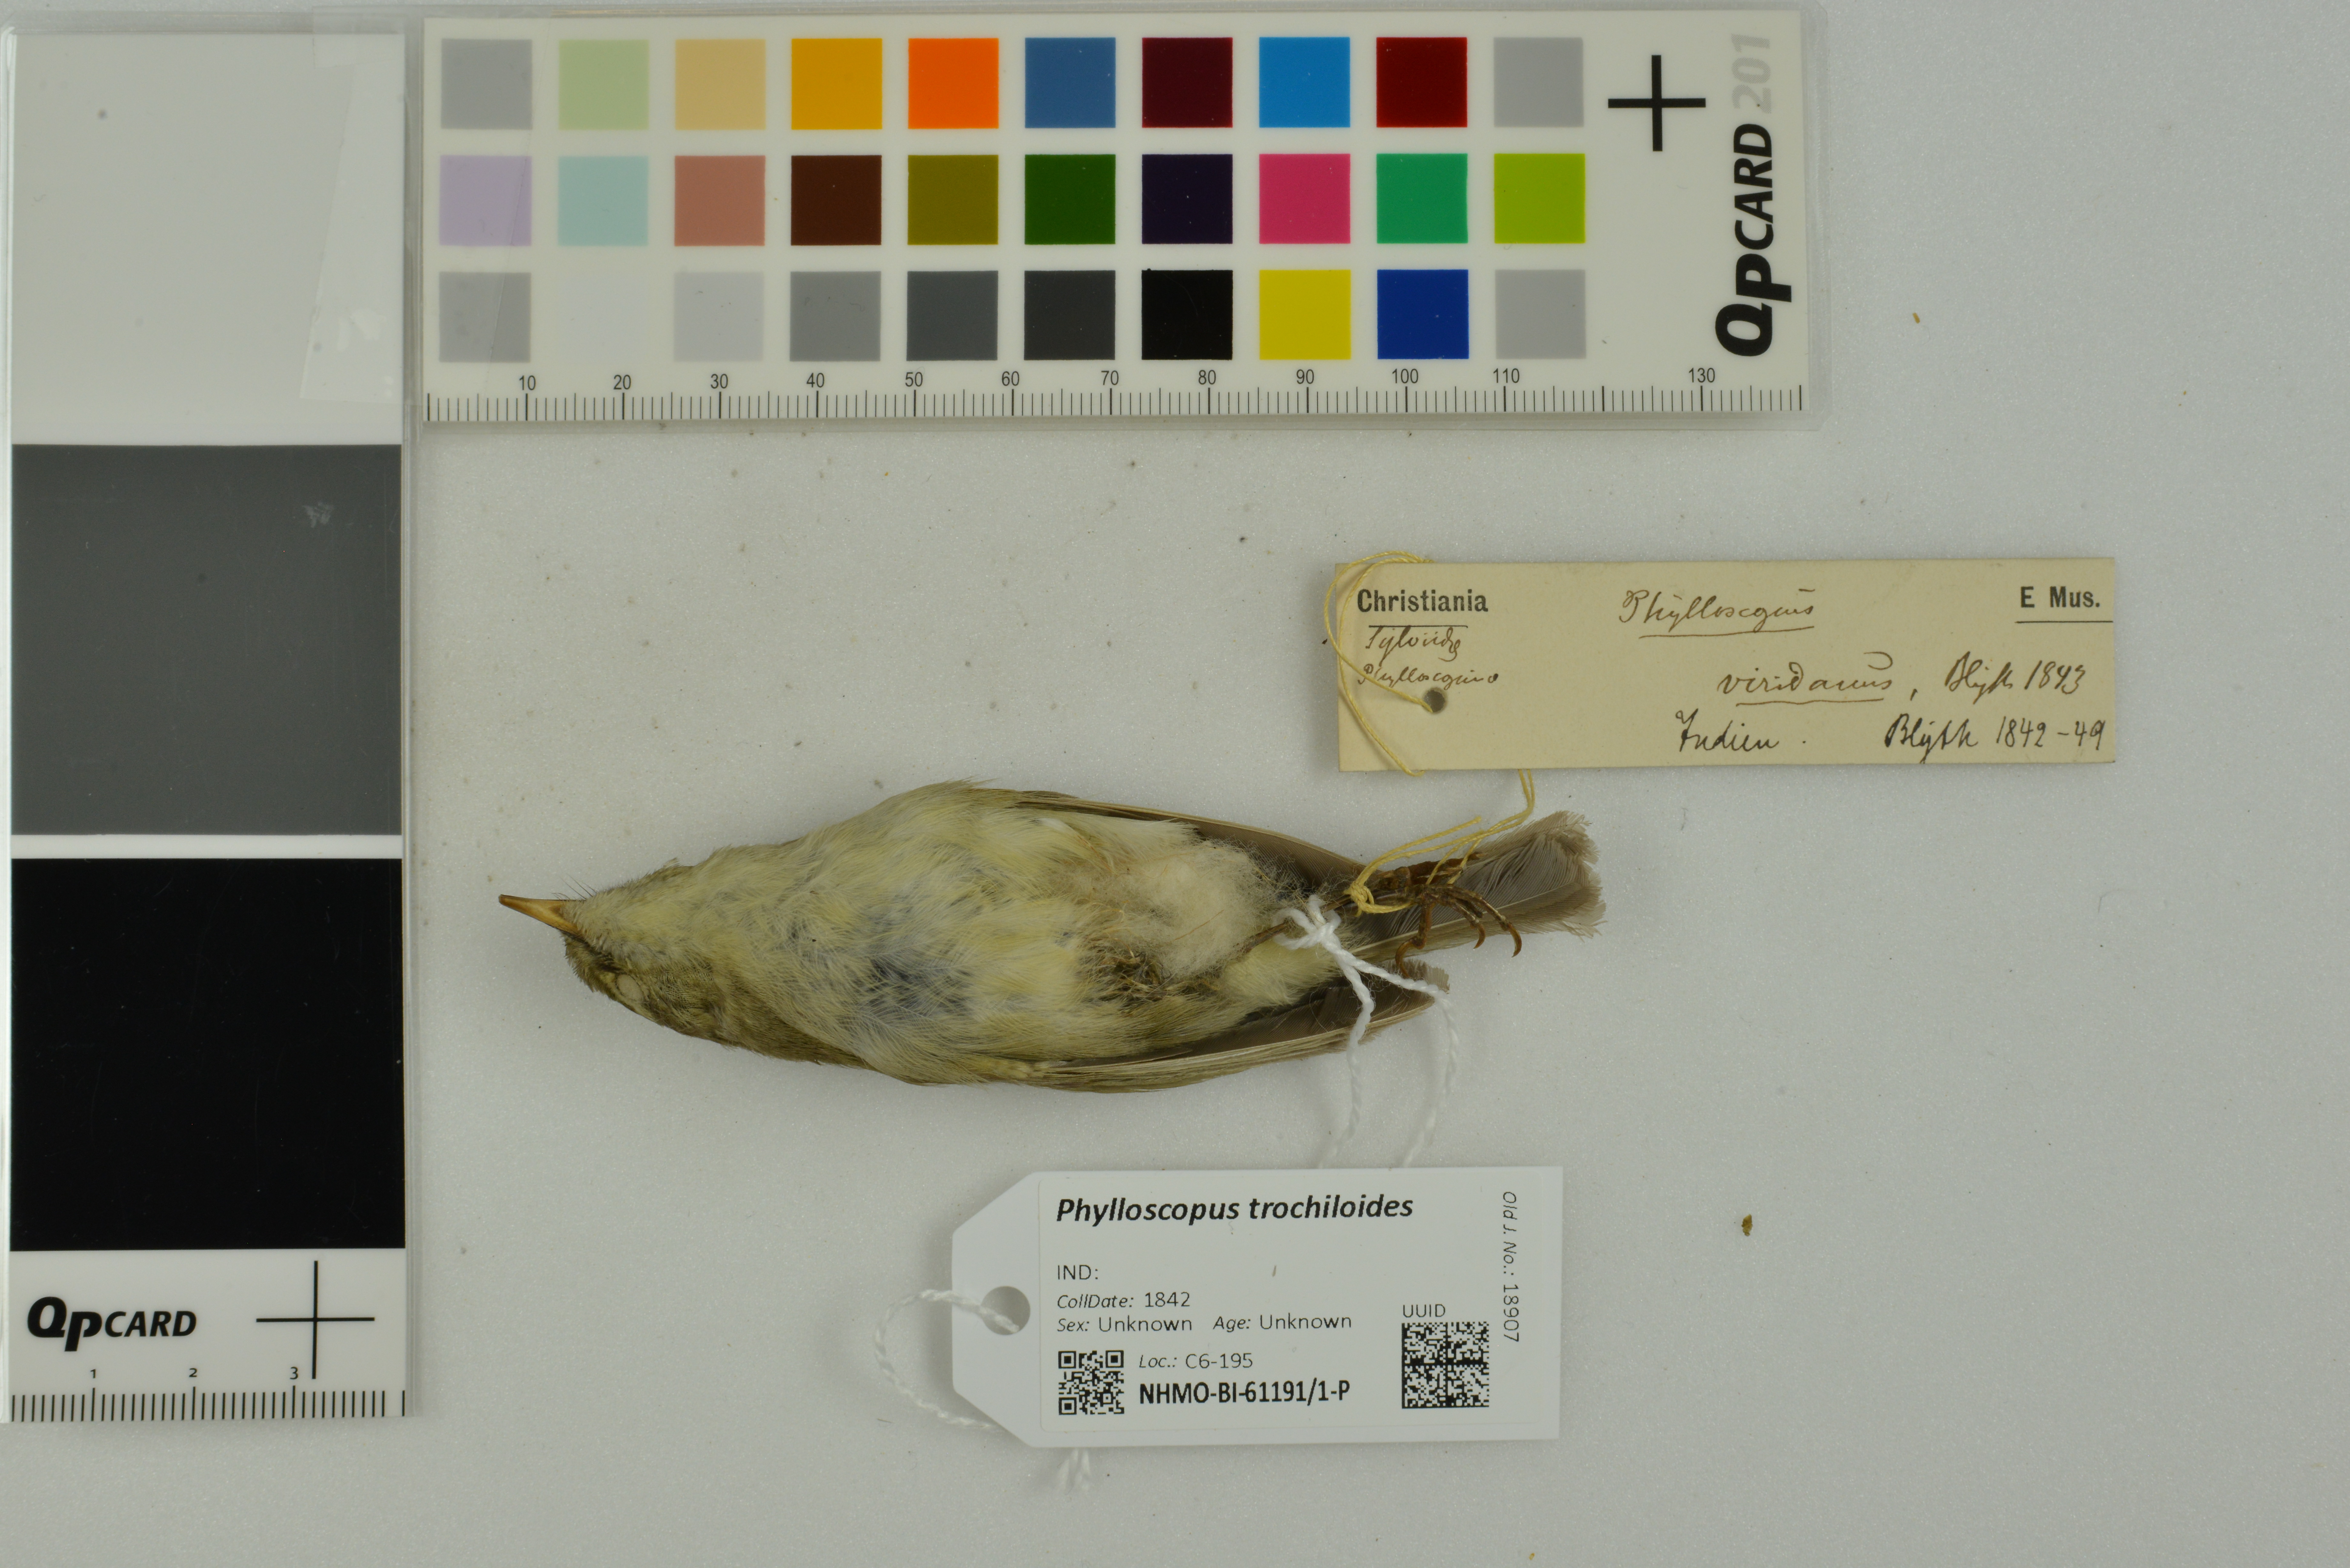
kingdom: Animalia
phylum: Chordata
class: Aves
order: Passeriformes
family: Phylloscopidae
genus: Phylloscopus
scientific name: Phylloscopus trochiloides
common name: Greenish warbler
